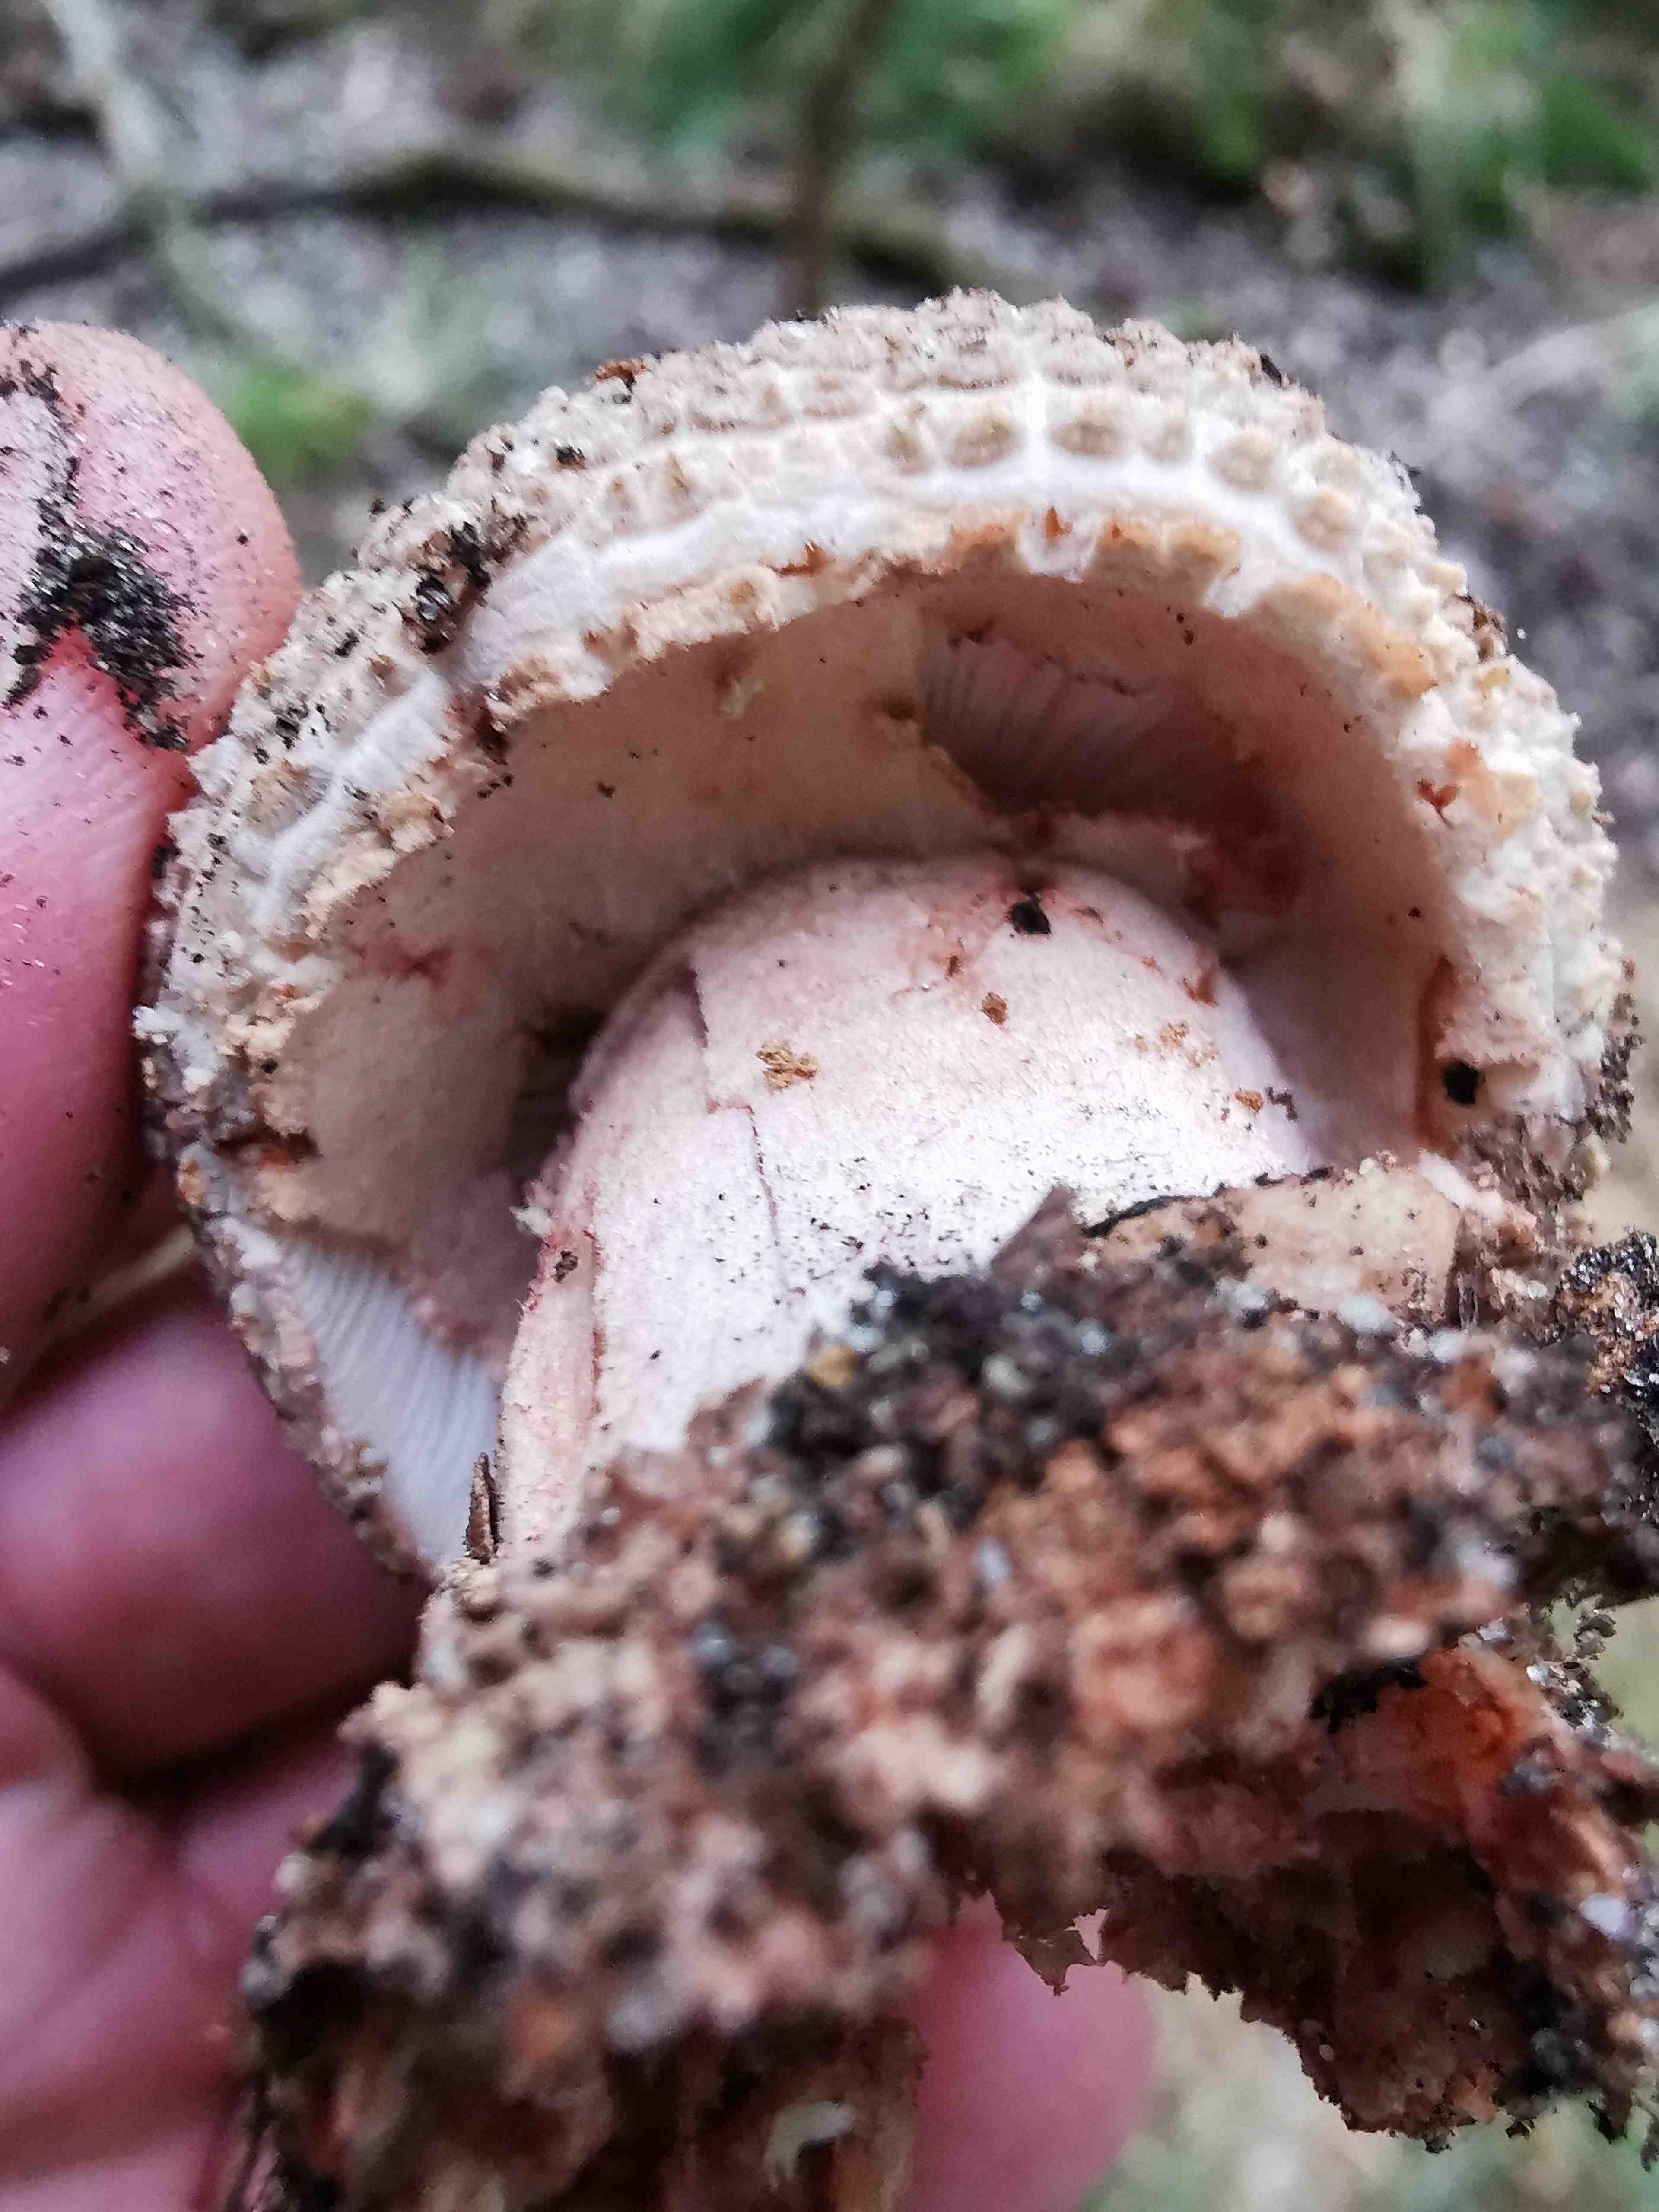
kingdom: Fungi
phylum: Basidiomycota
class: Agaricomycetes
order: Agaricales
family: Amanitaceae
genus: Amanita
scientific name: Amanita rubescens
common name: rødmende fluesvamp
